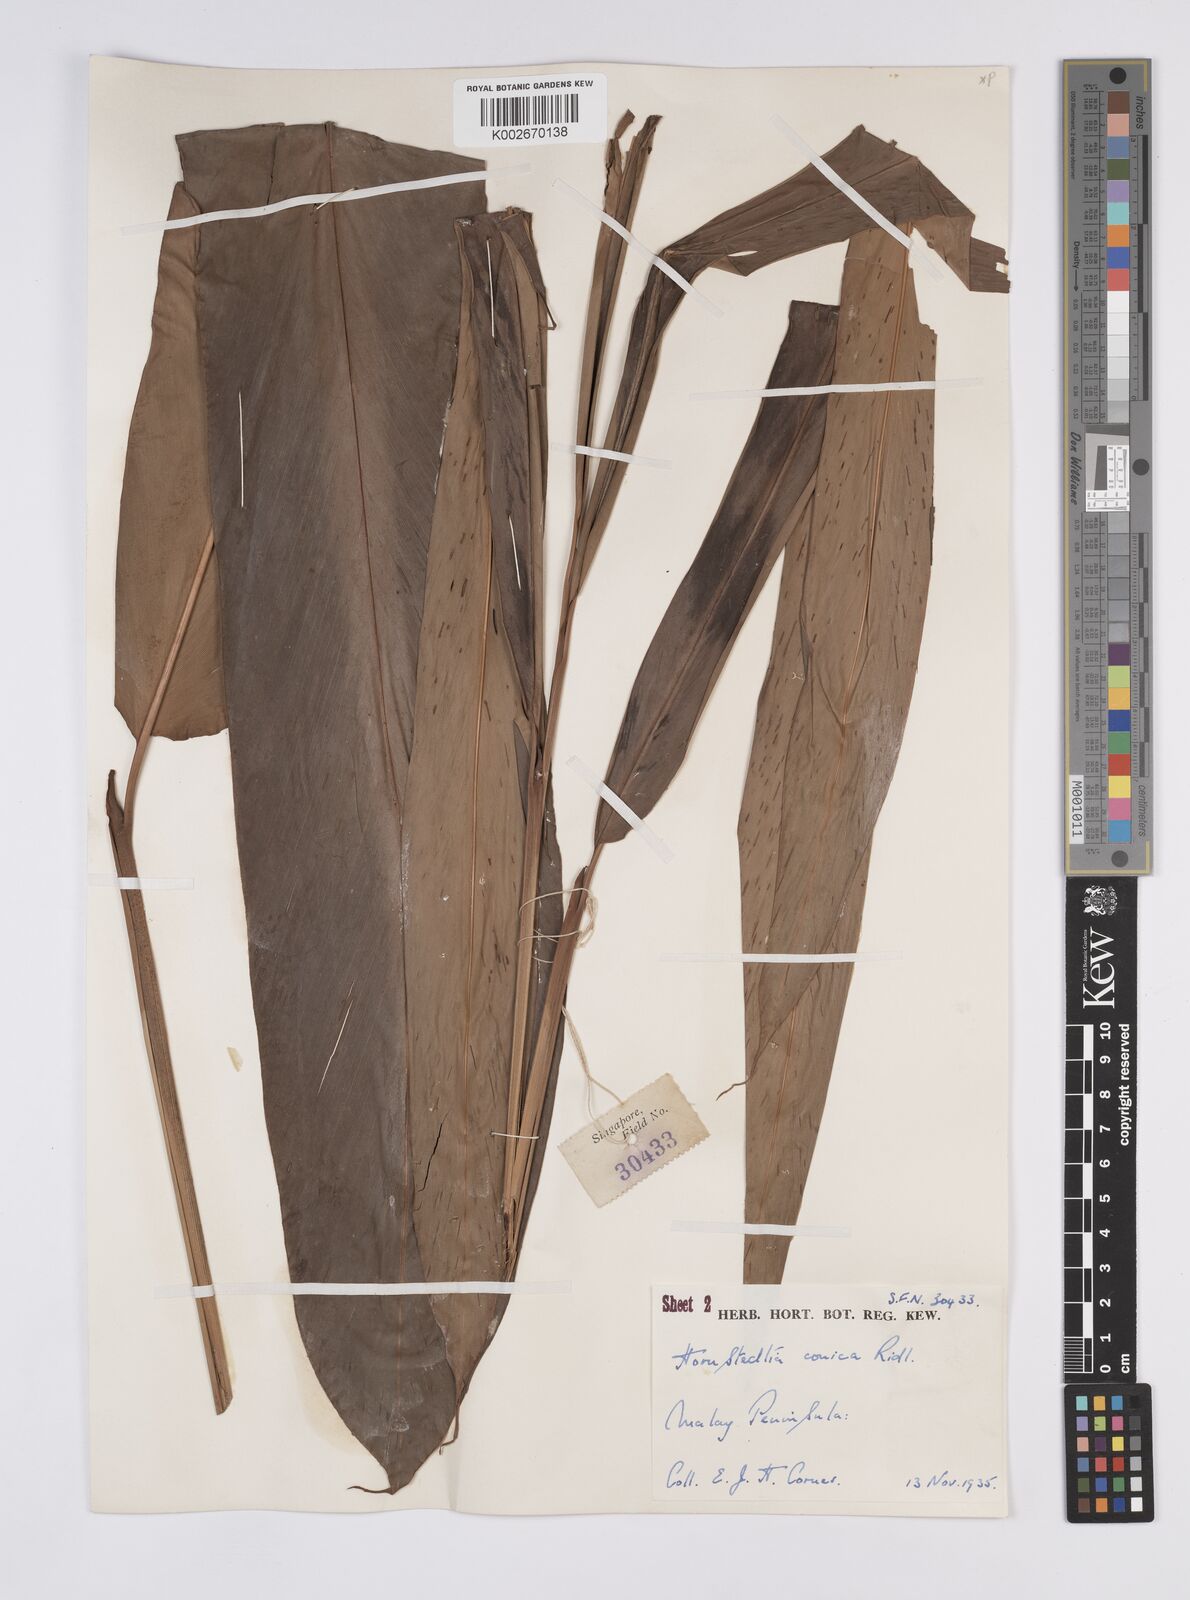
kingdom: Plantae
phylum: Tracheophyta
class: Liliopsida
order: Zingiberales
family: Zingiberaceae
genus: Hornstedtia
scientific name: Hornstedtia conica
